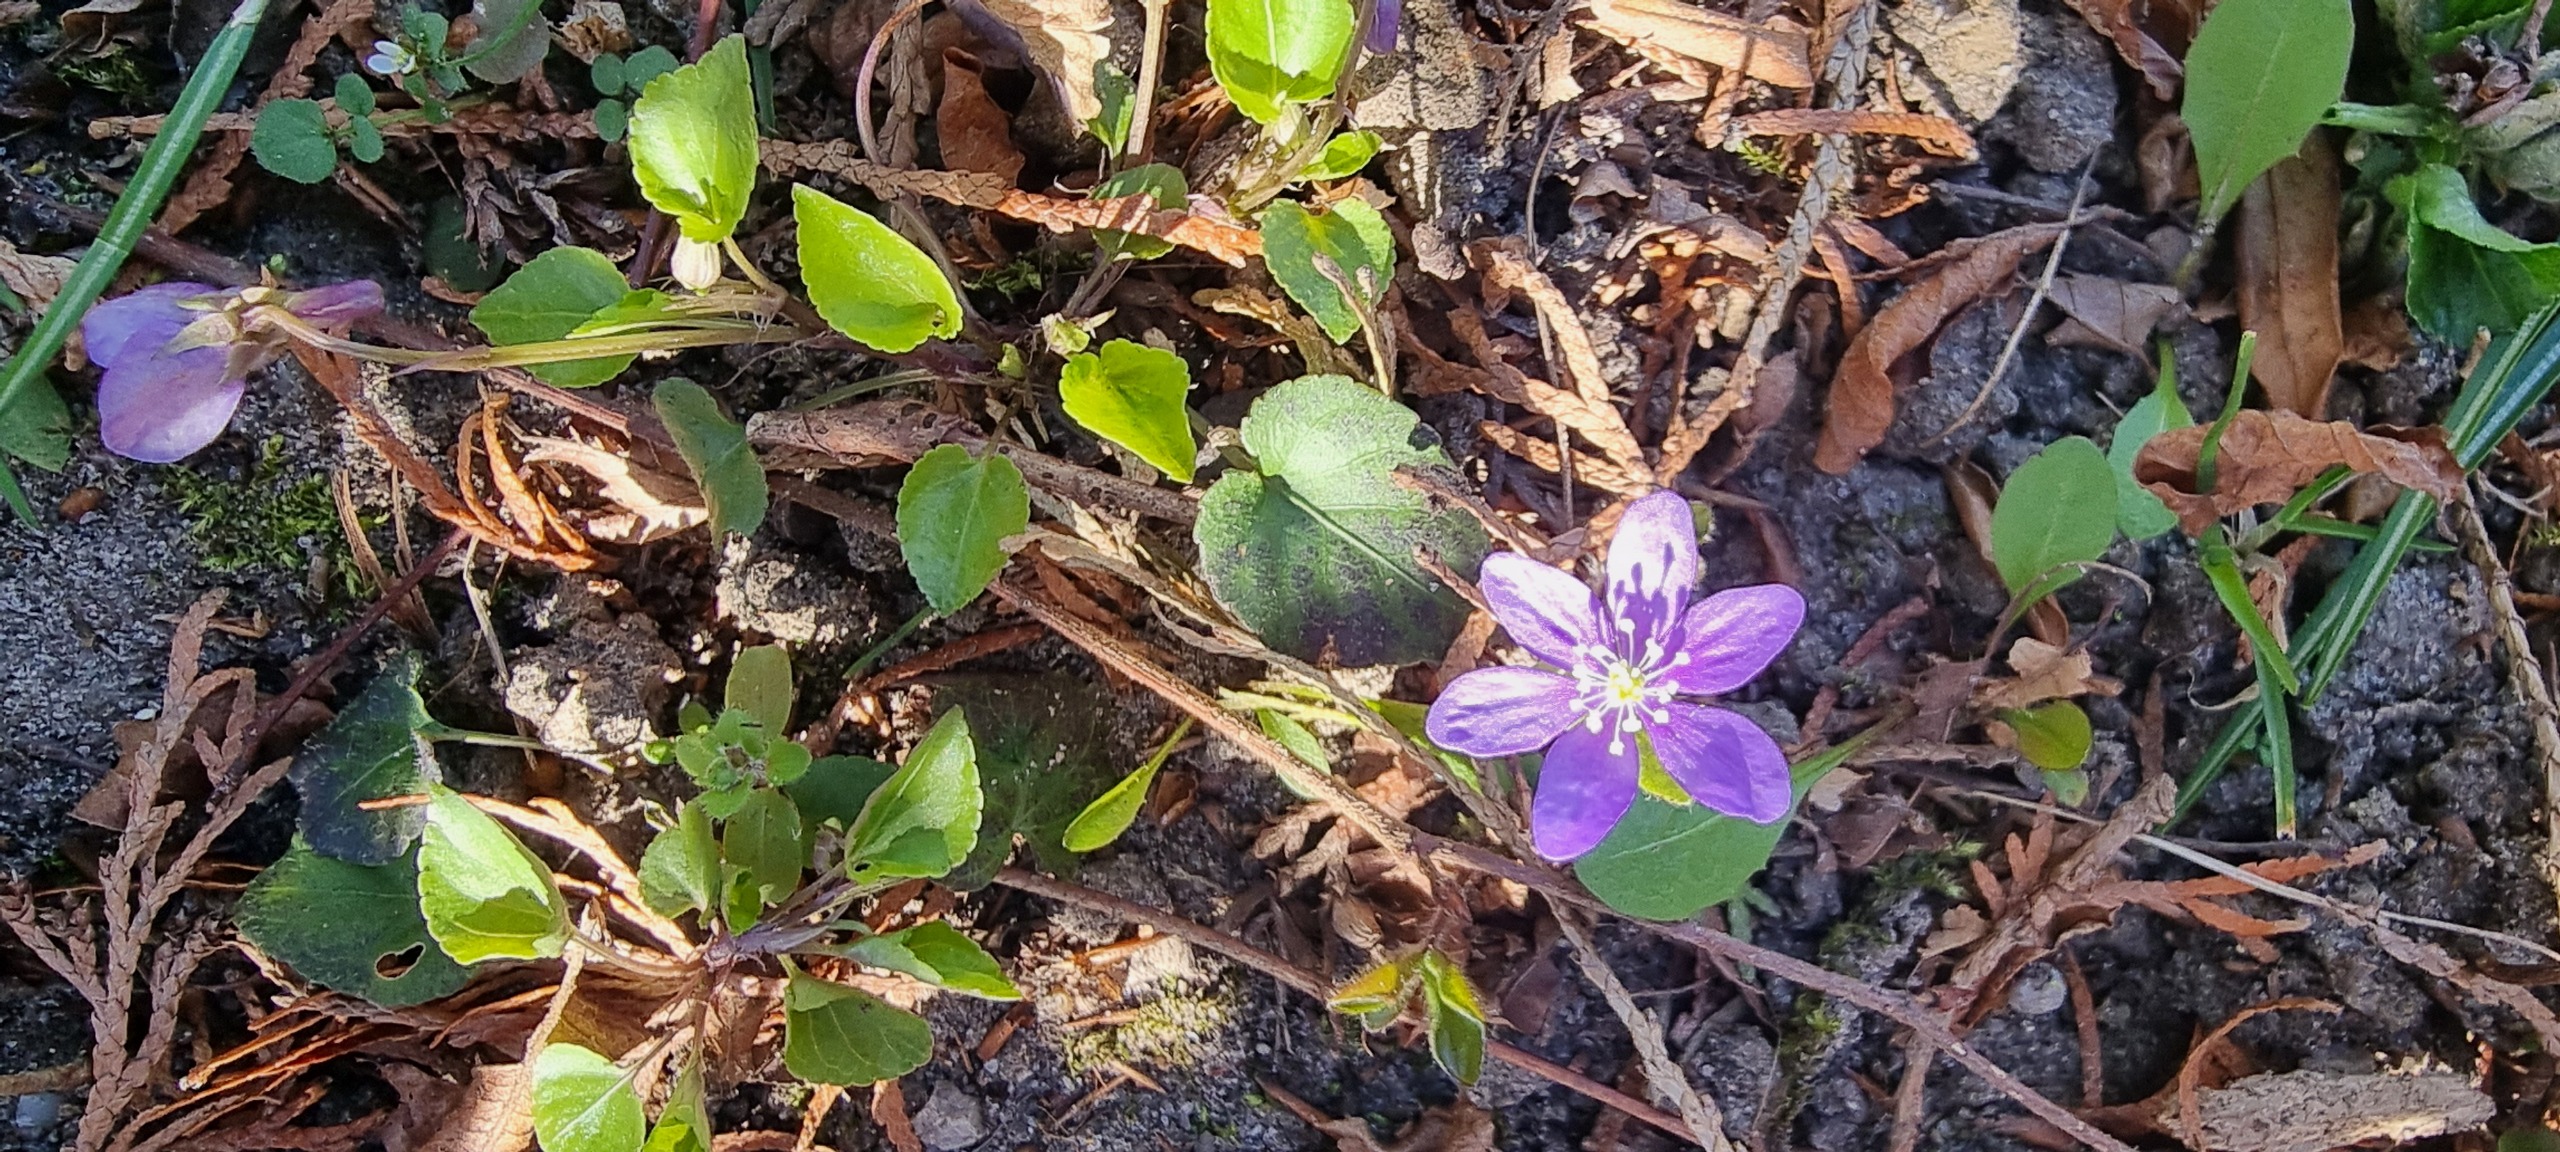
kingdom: Plantae
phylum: Tracheophyta
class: Magnoliopsida
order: Ranunculales
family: Ranunculaceae
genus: Hepatica
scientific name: Hepatica nobilis
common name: Blå anemone
